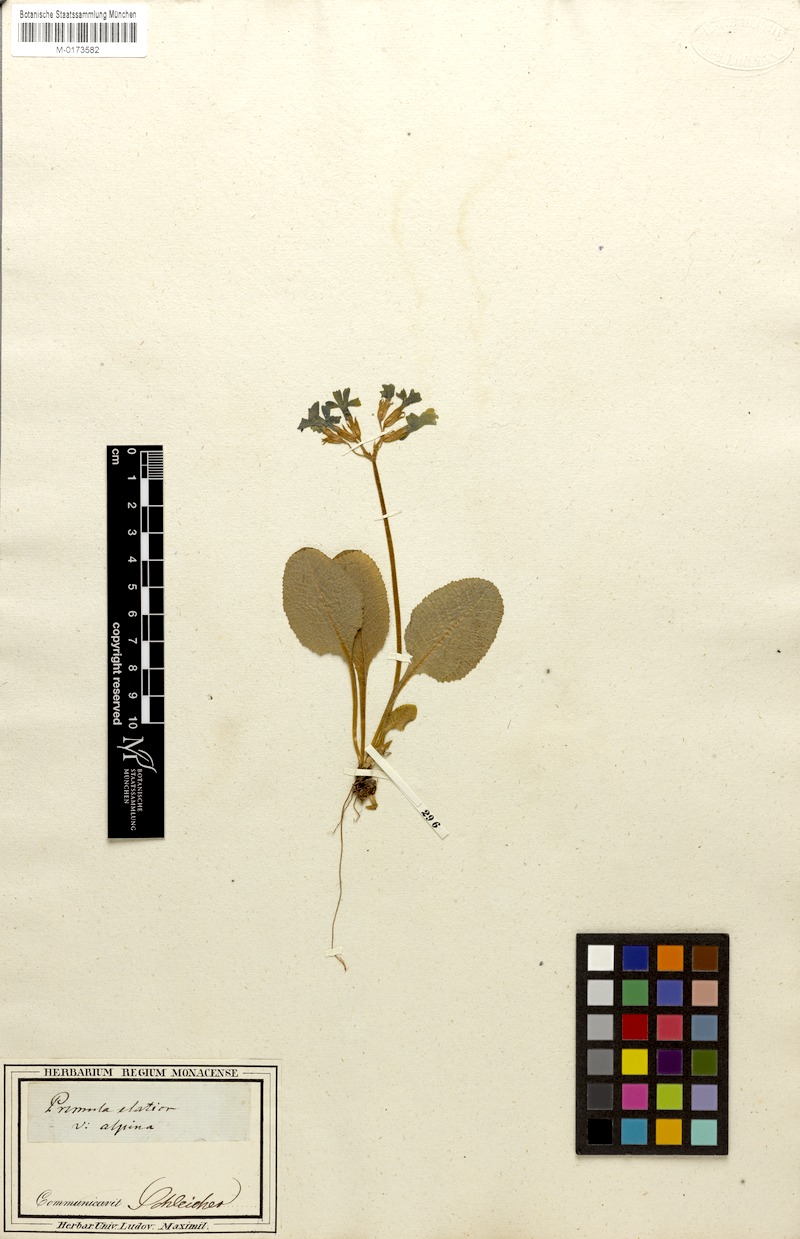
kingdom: Plantae
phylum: Tracheophyta
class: Magnoliopsida
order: Ericales
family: Primulaceae
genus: Primula
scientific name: Primula elatior
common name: Oxlip
